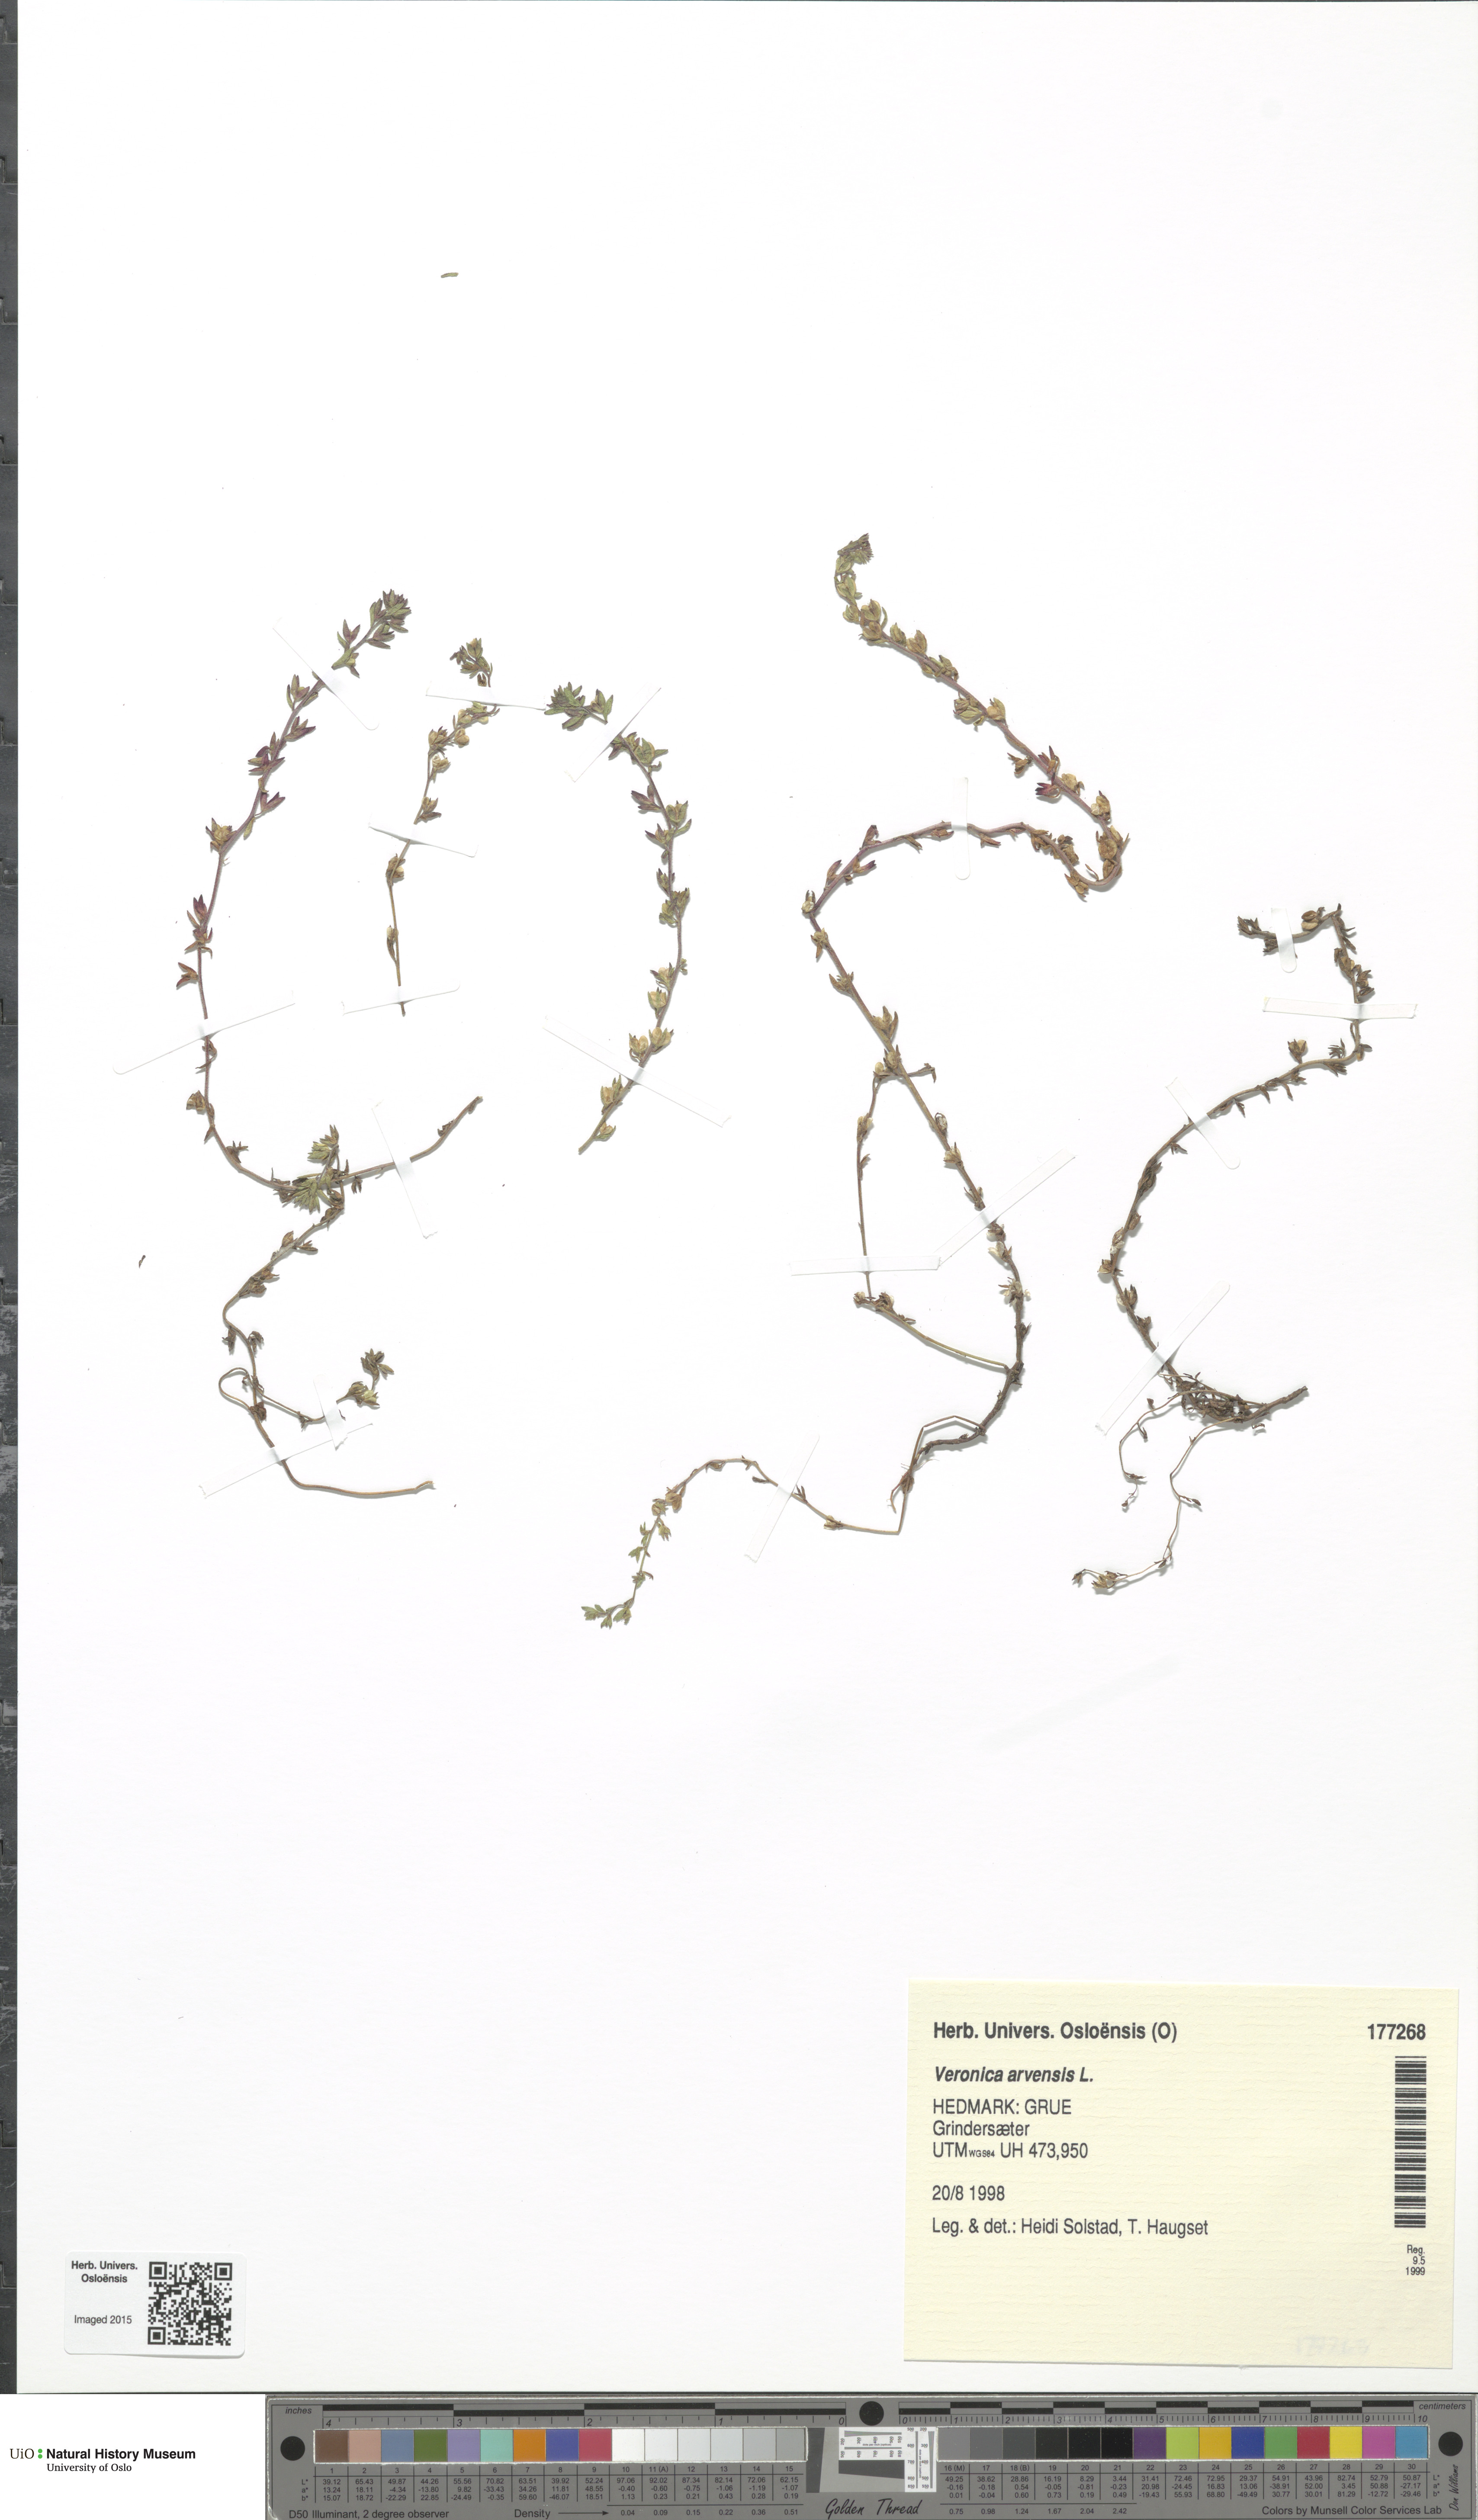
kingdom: Plantae
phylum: Tracheophyta
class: Magnoliopsida
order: Lamiales
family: Plantaginaceae
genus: Veronica
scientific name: Veronica arvensis
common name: Corn speedwell
